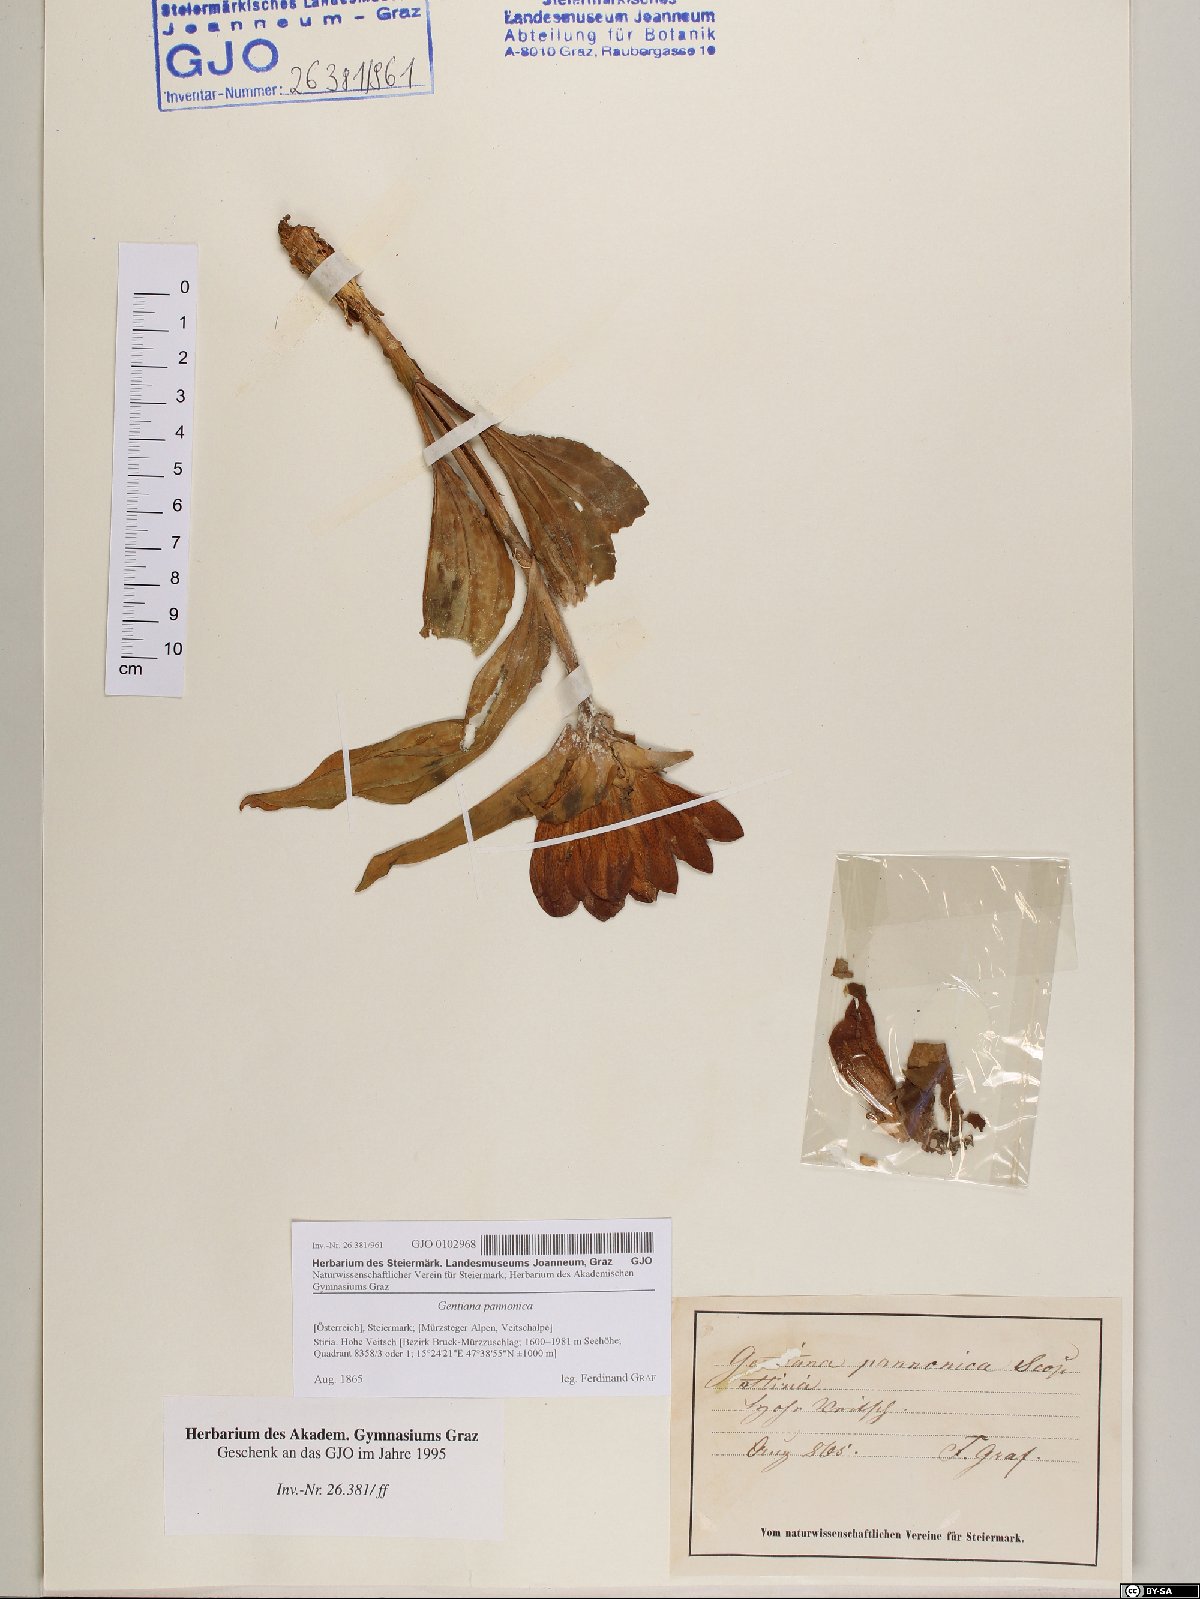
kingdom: Plantae
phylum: Tracheophyta
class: Magnoliopsida
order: Gentianales
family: Gentianaceae
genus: Gentiana
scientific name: Gentiana pannonica
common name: Hungarian gentian
